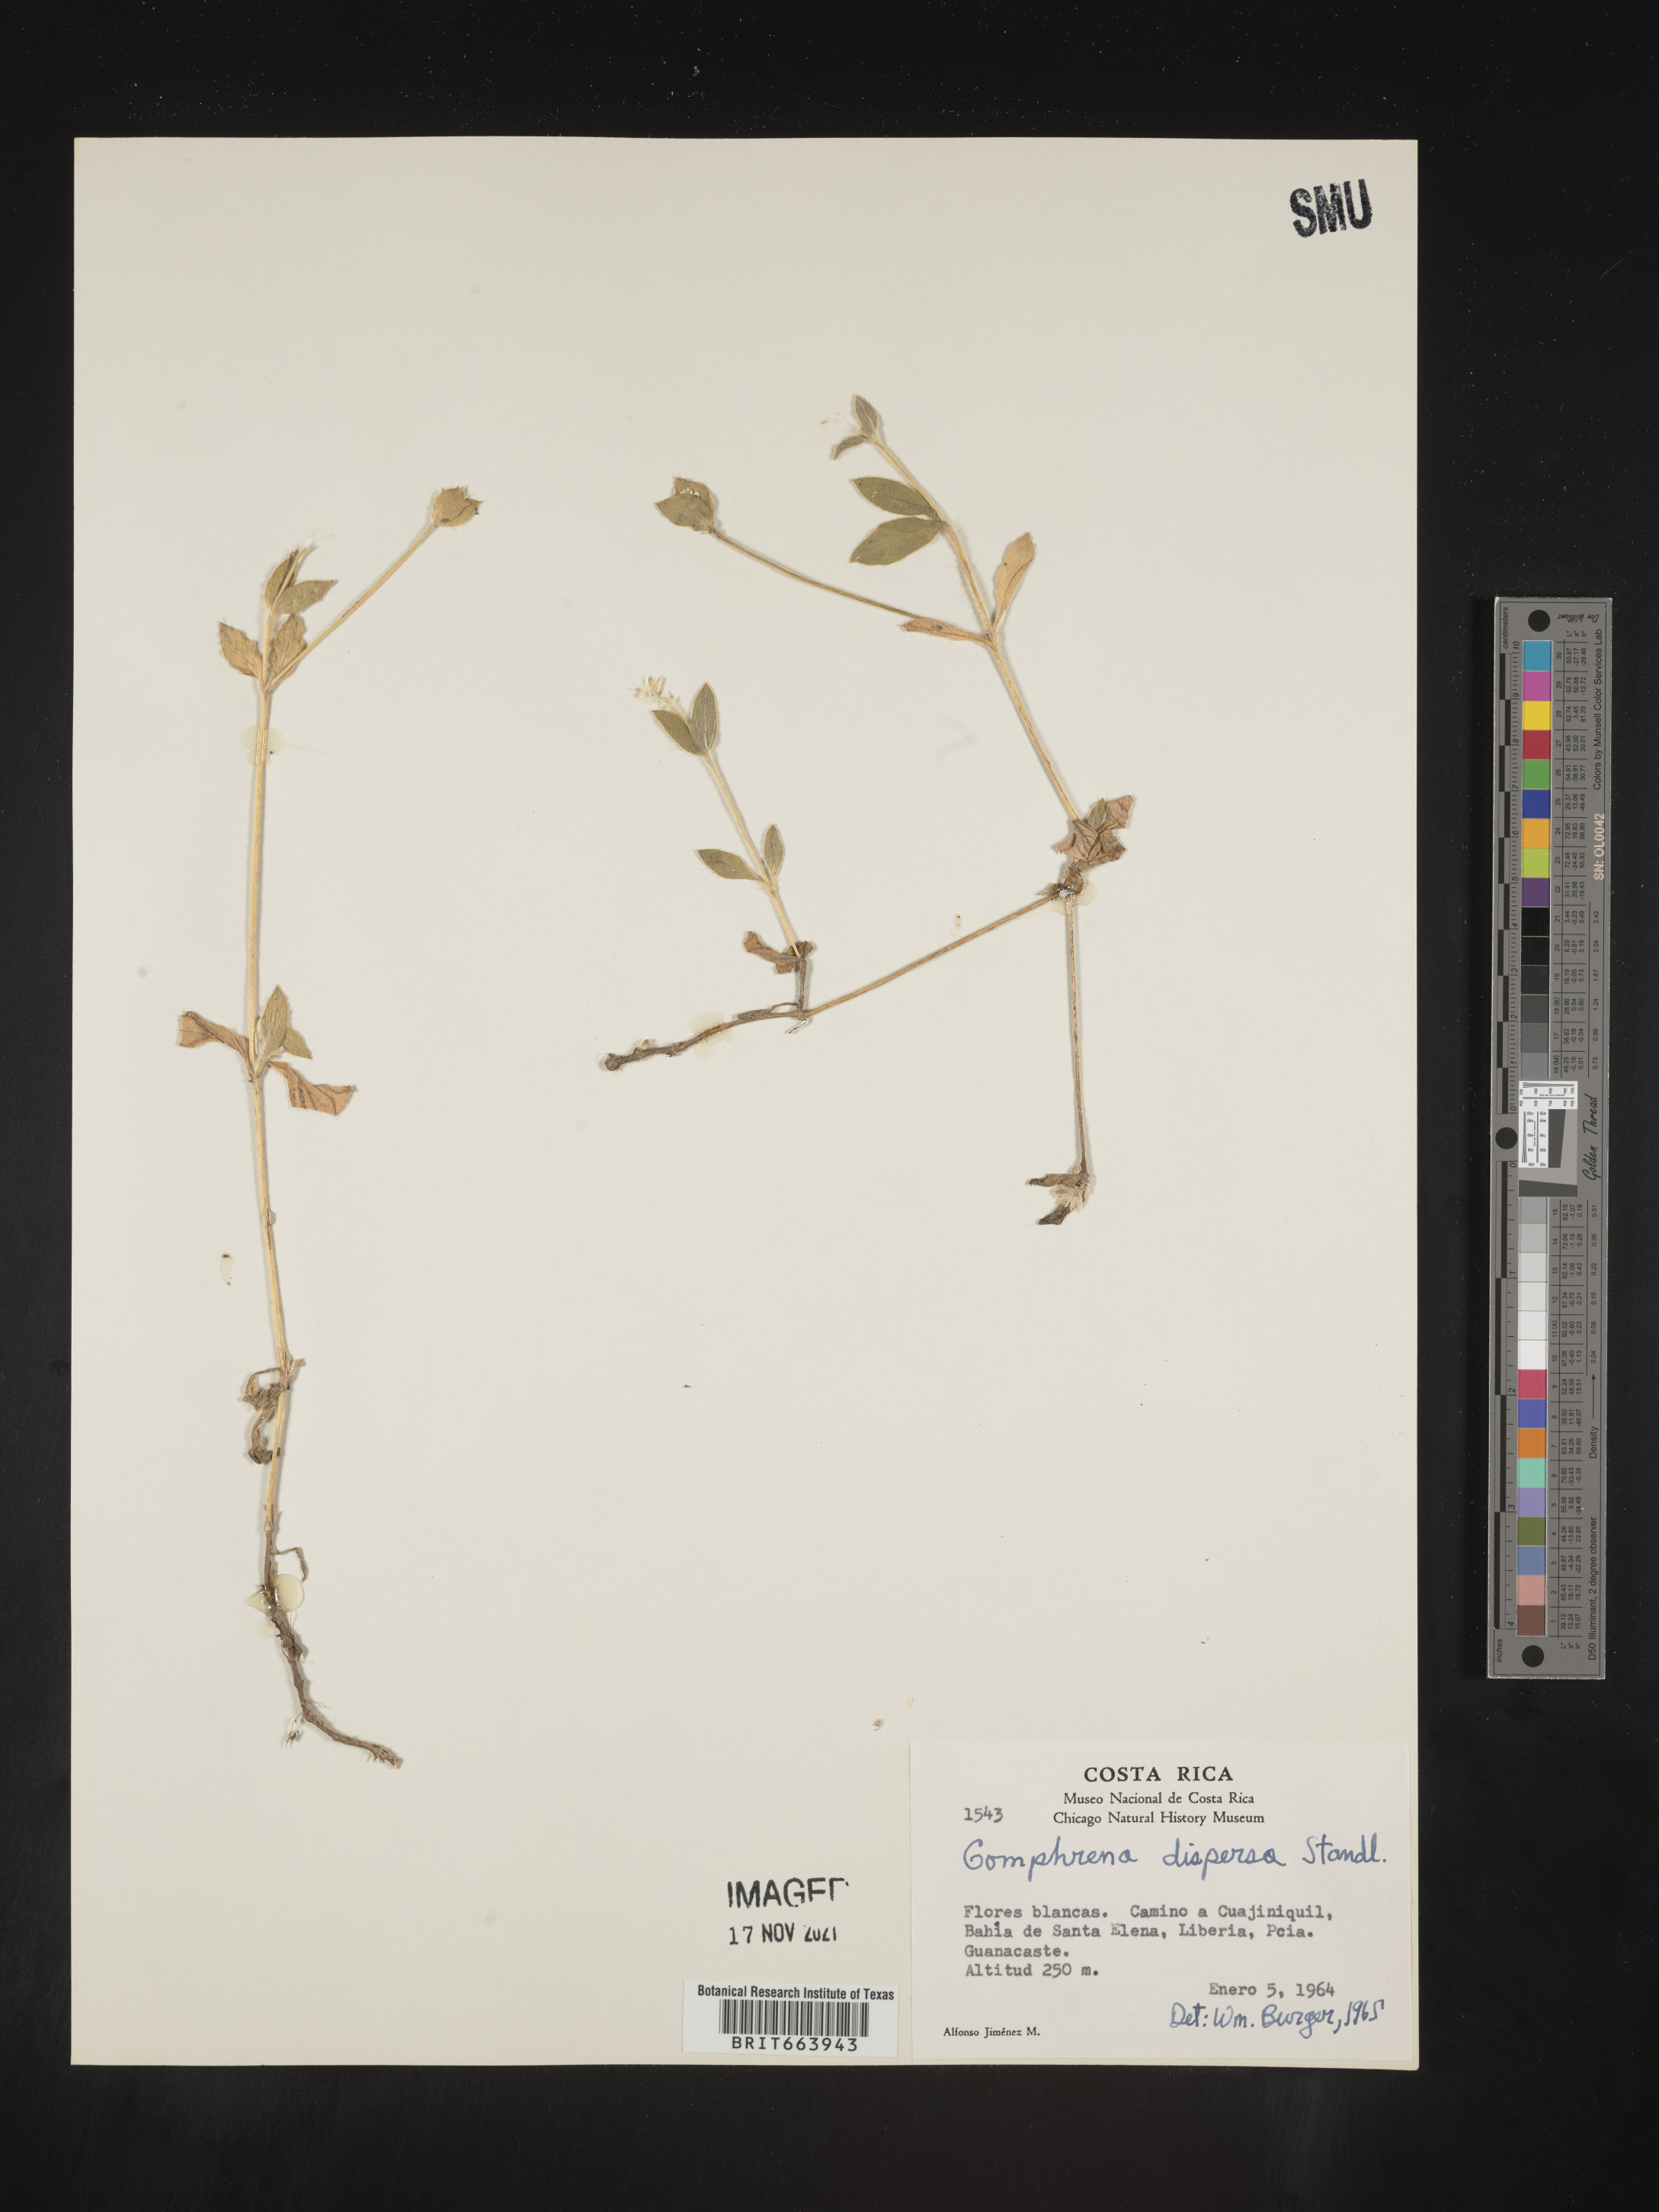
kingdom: Plantae
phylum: Tracheophyta
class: Magnoliopsida
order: Caryophyllales
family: Amaranthaceae
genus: Gomphrena
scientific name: Gomphrena
